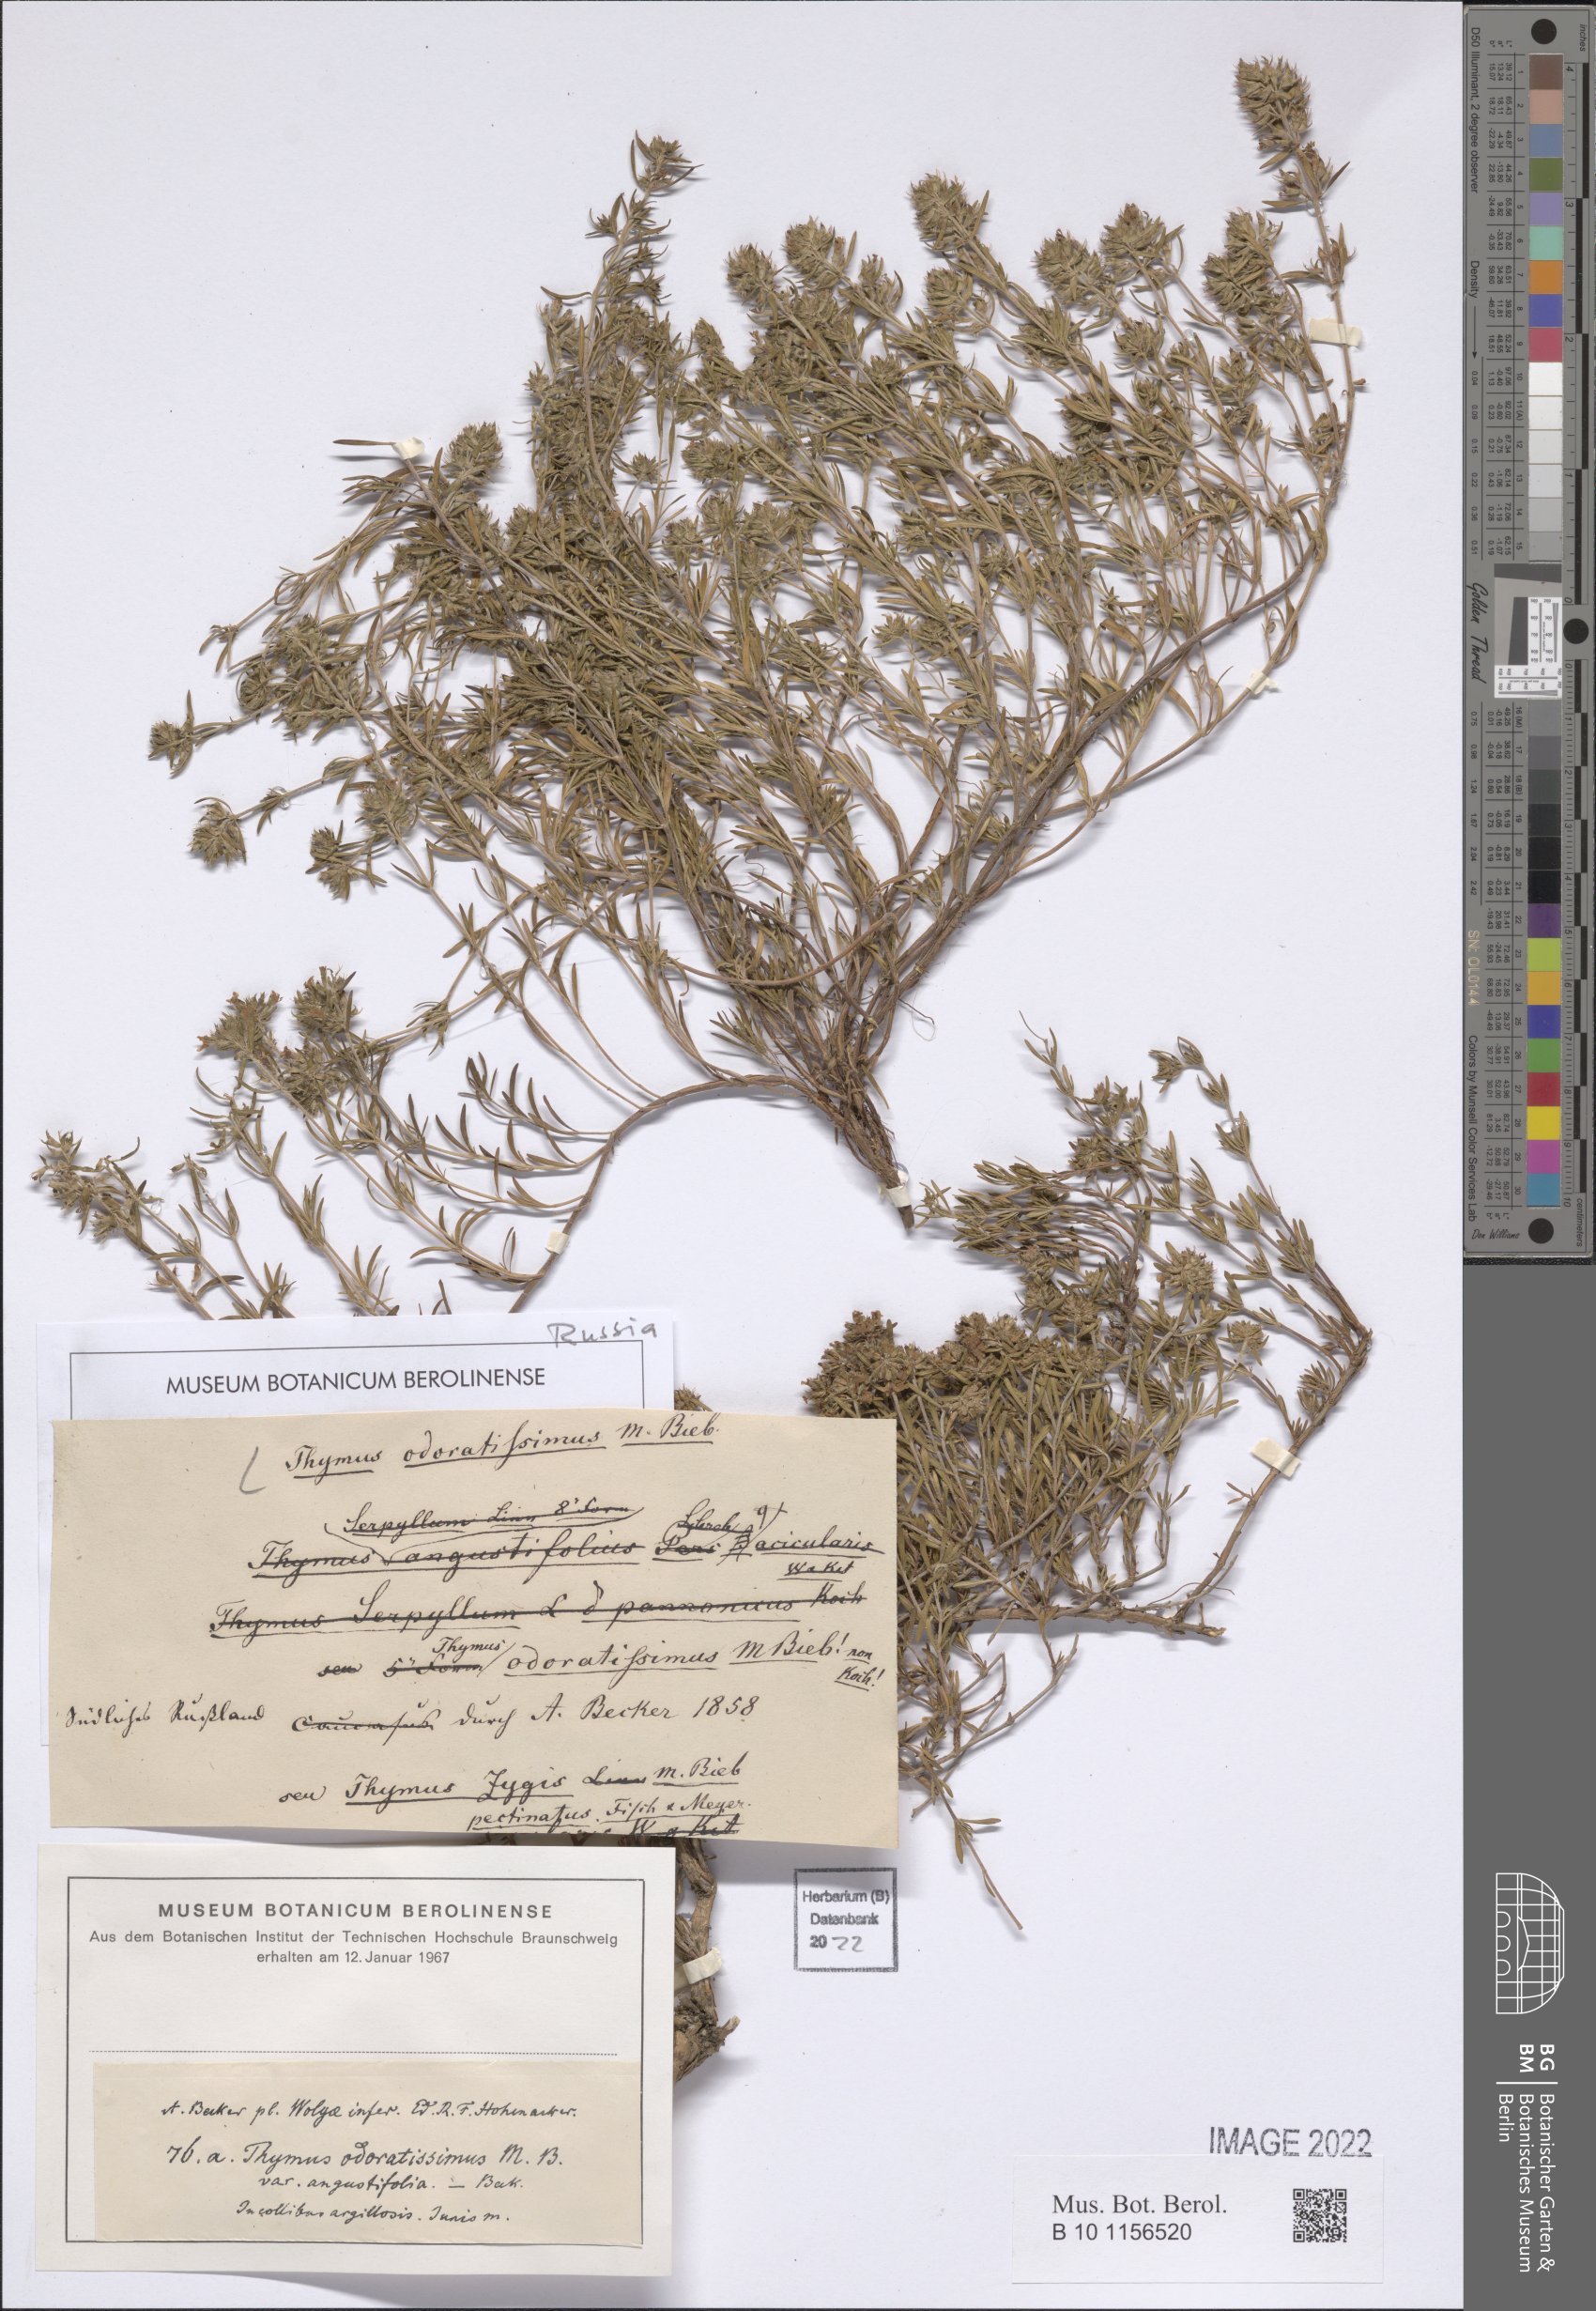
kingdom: Plantae
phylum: Tracheophyta
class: Magnoliopsida
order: Lamiales
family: Lamiaceae
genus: Thymus
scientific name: Thymus odoratissimus
